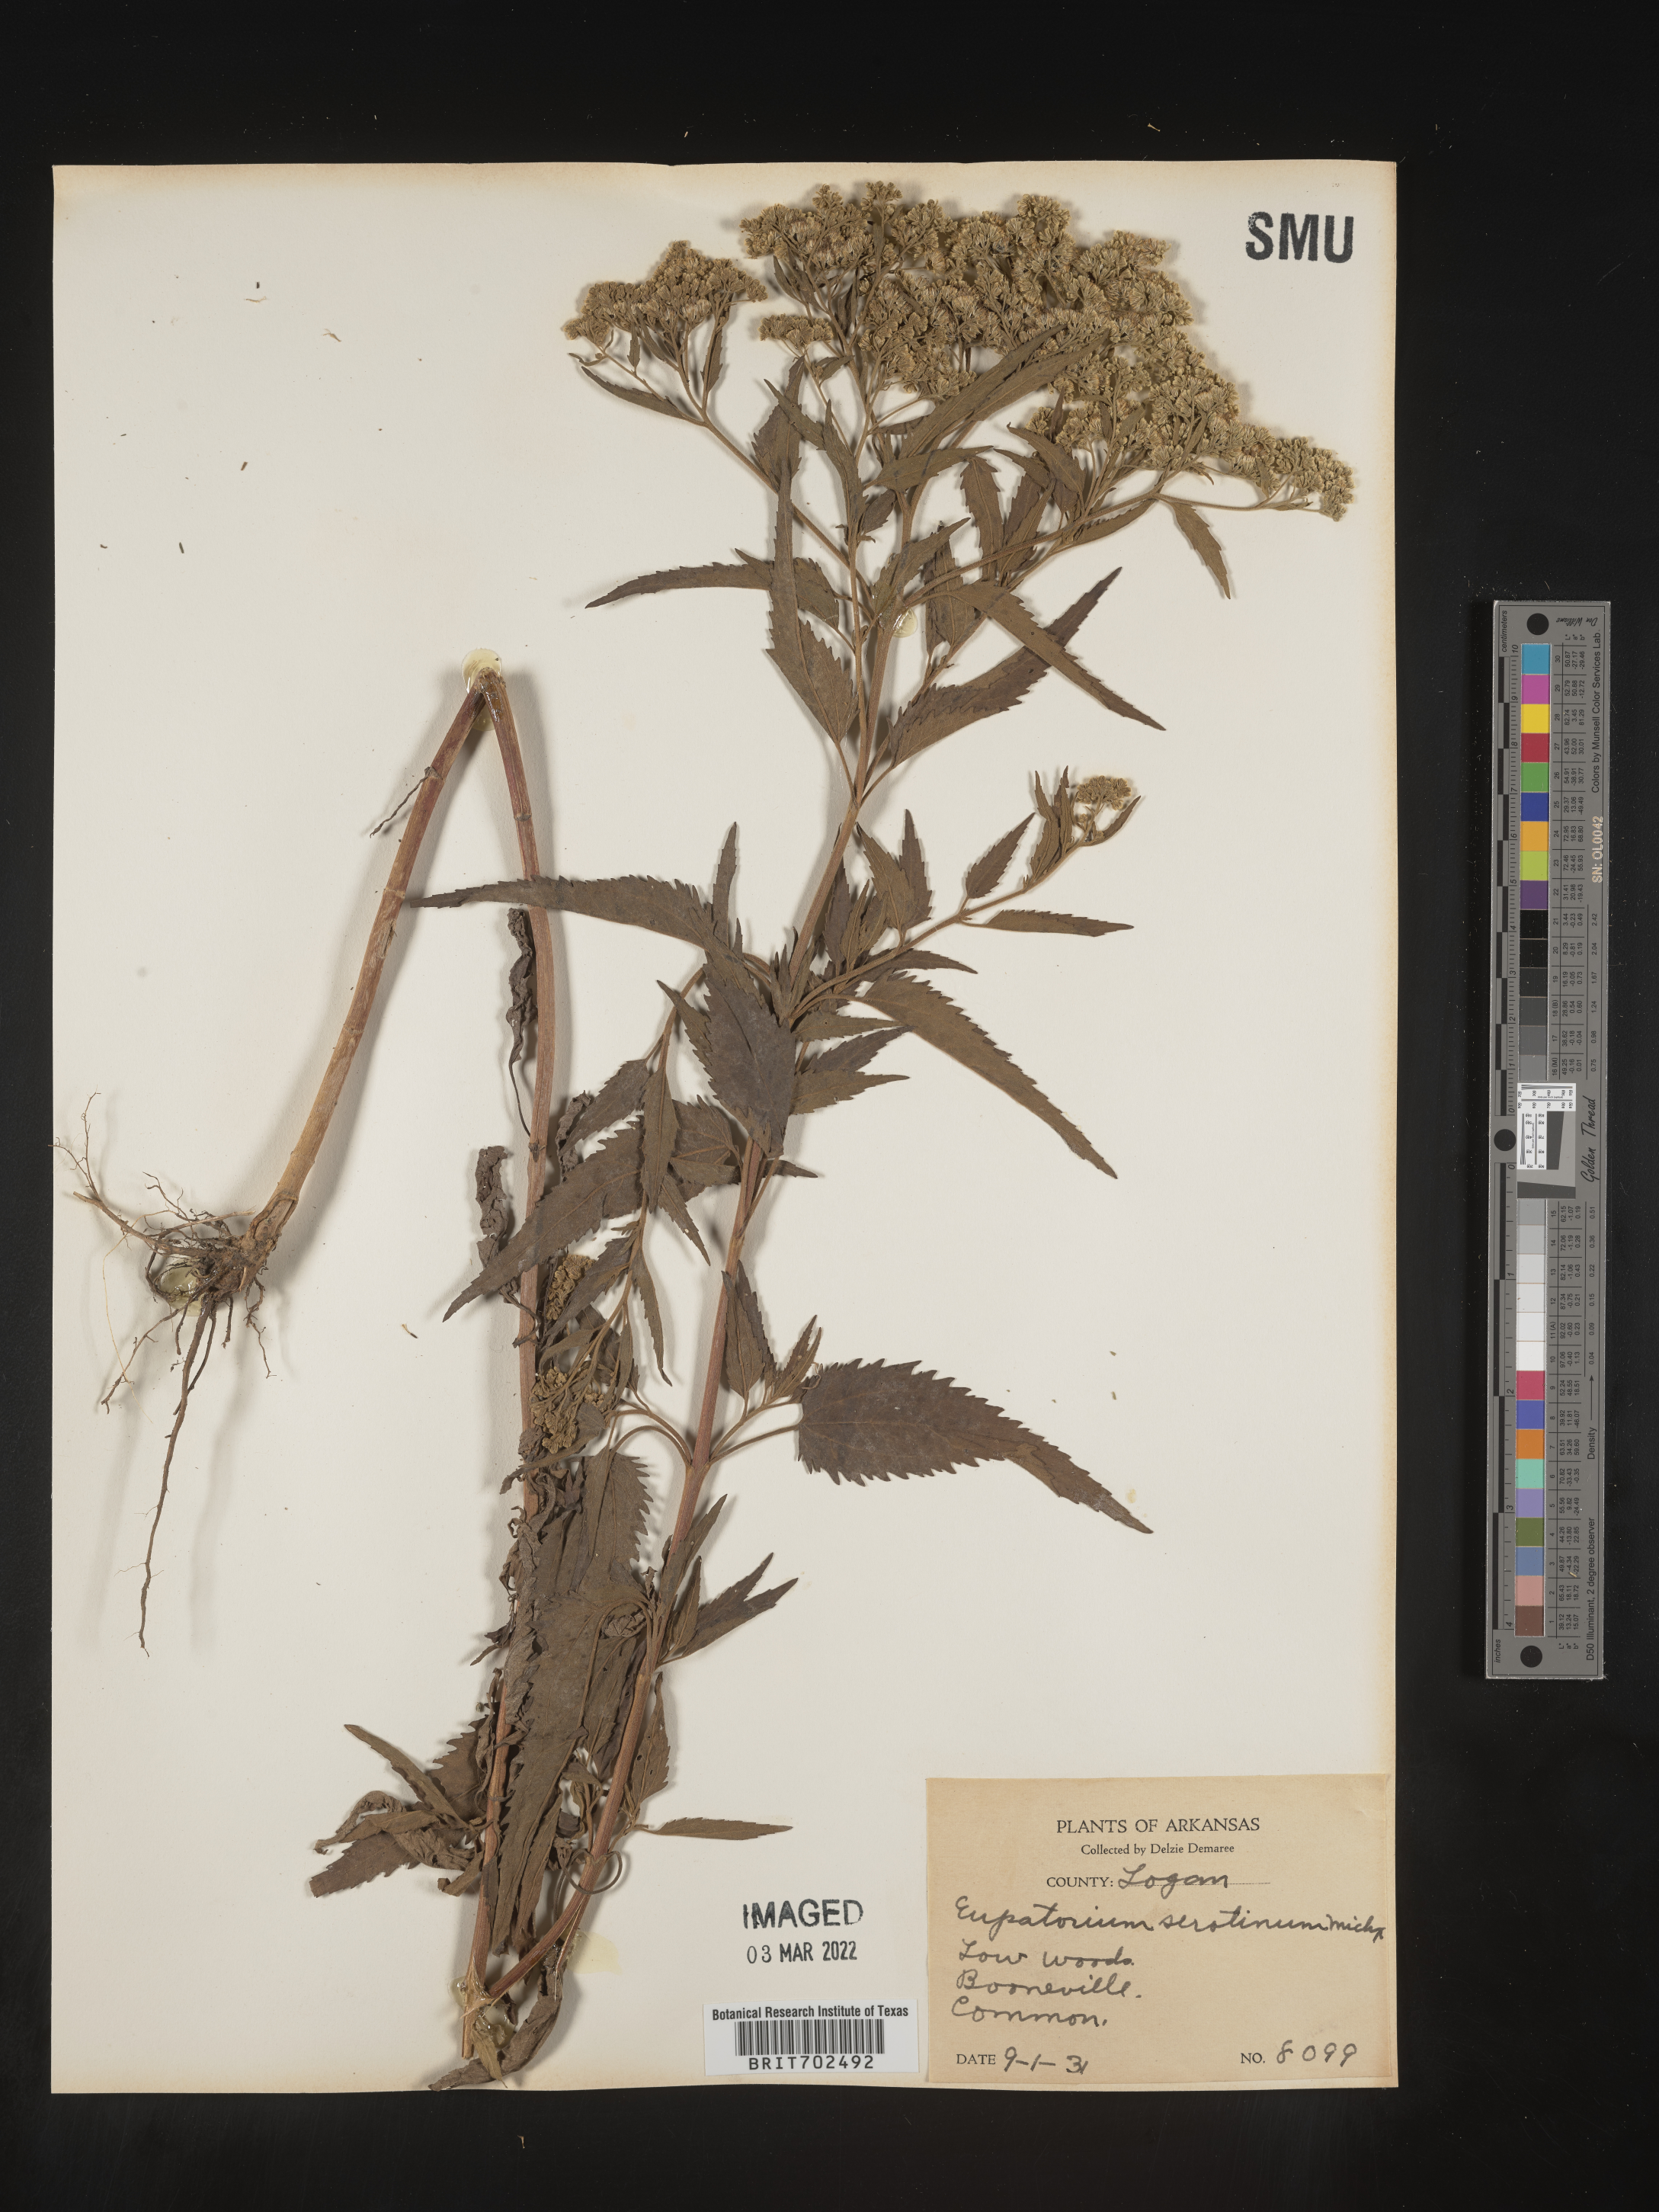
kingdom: Plantae
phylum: Tracheophyta
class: Magnoliopsida
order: Asterales
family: Asteraceae
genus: Eupatorium
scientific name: Eupatorium serotinum
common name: Late boneset
